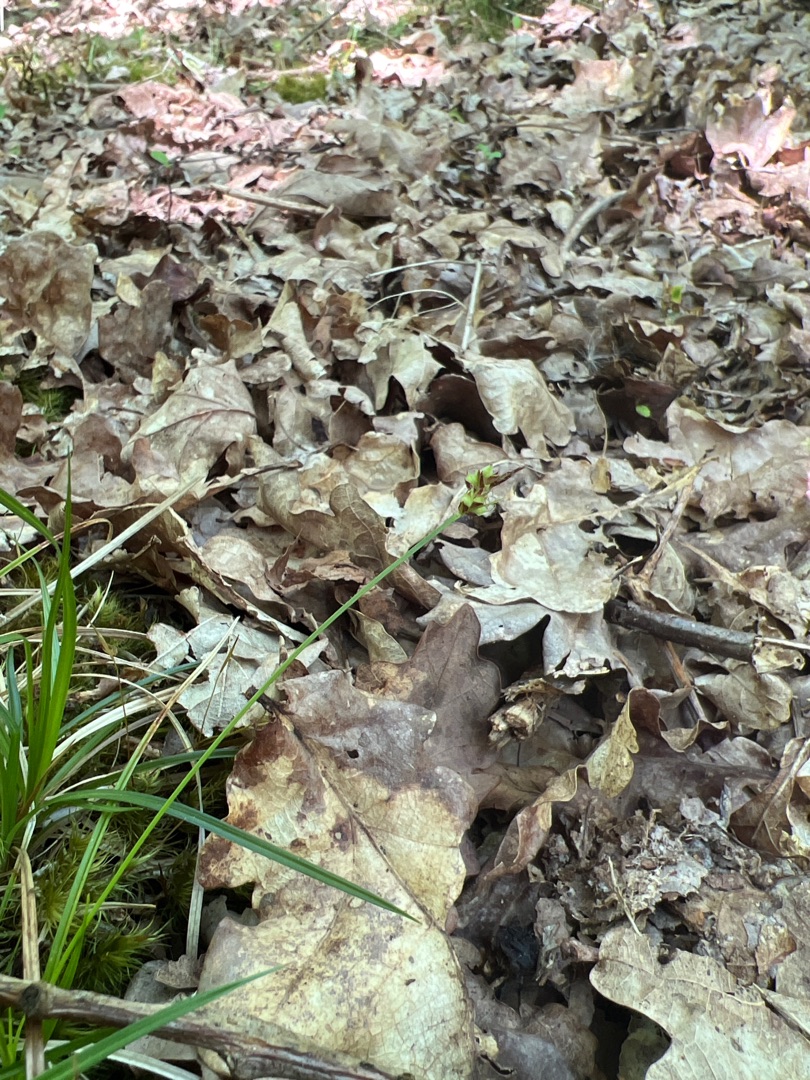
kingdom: Plantae
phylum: Tracheophyta
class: Liliopsida
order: Poales
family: Cyperaceae
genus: Carex
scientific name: Carex pilulifera
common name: Pille-star
